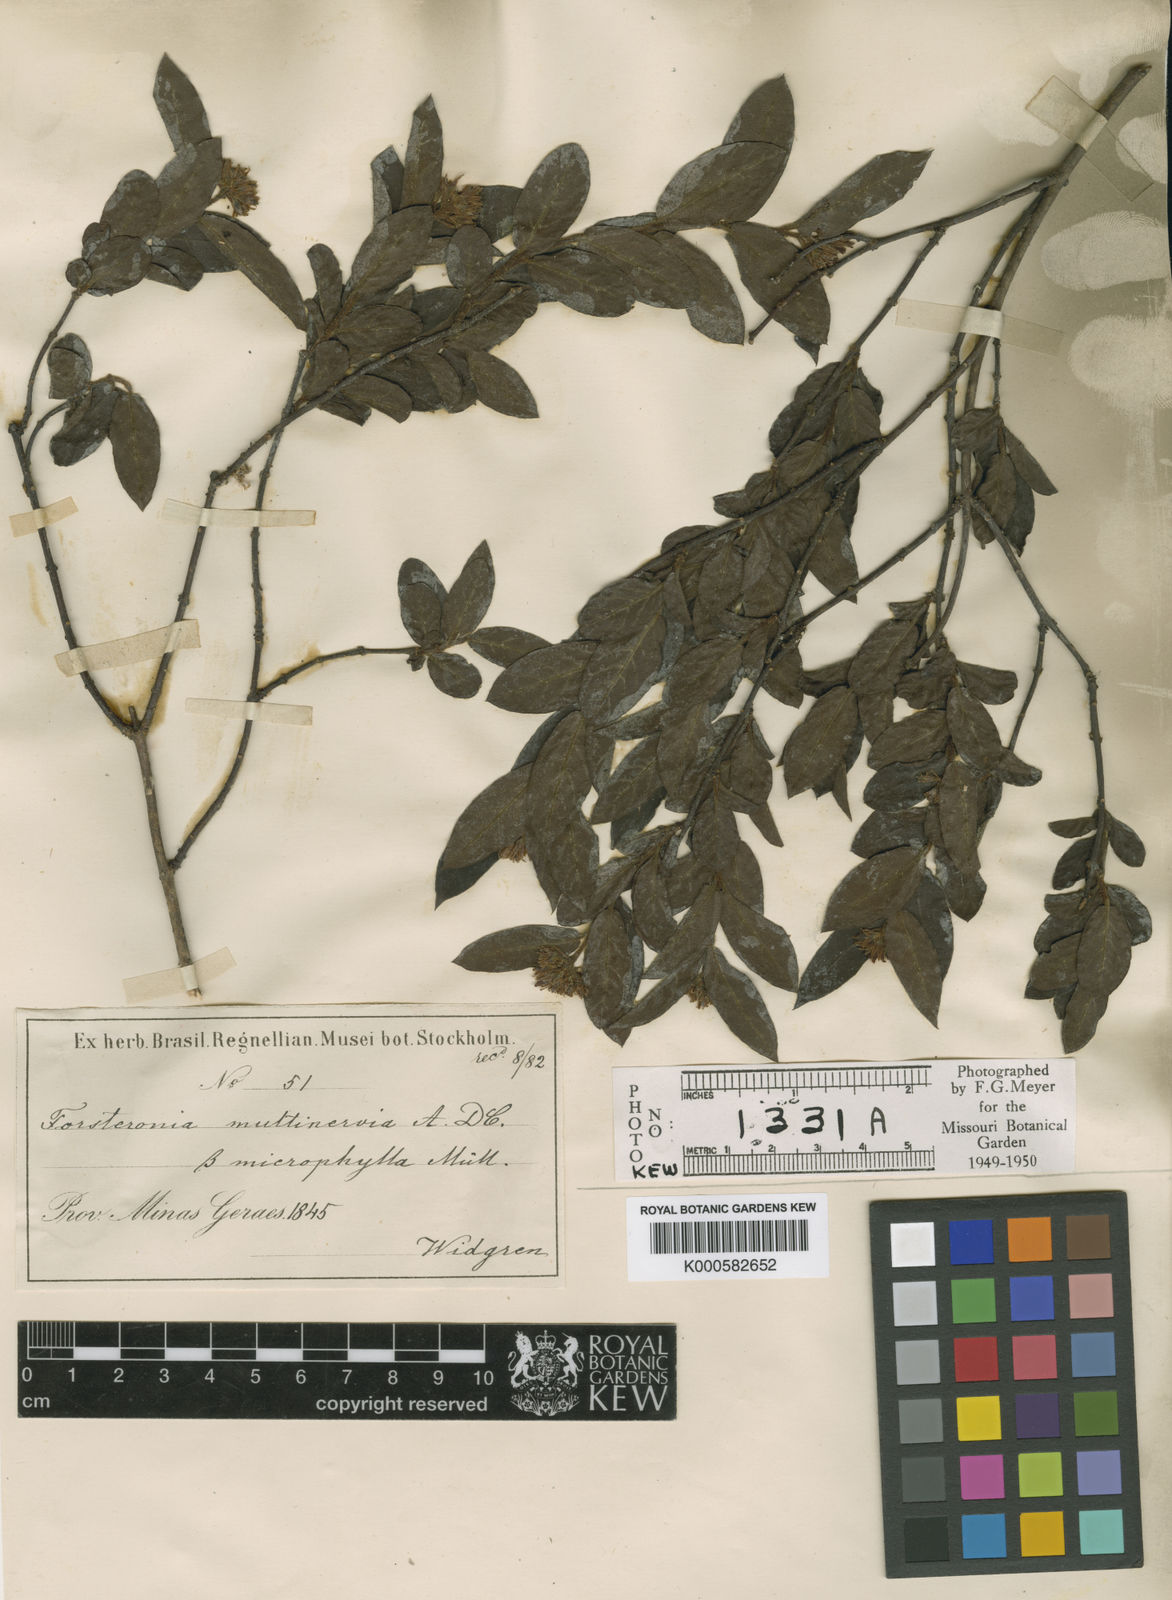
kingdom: Plantae
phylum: Tracheophyta
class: Magnoliopsida
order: Gentianales
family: Apocynaceae
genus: Forsteronia
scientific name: Forsteronia velloziana
